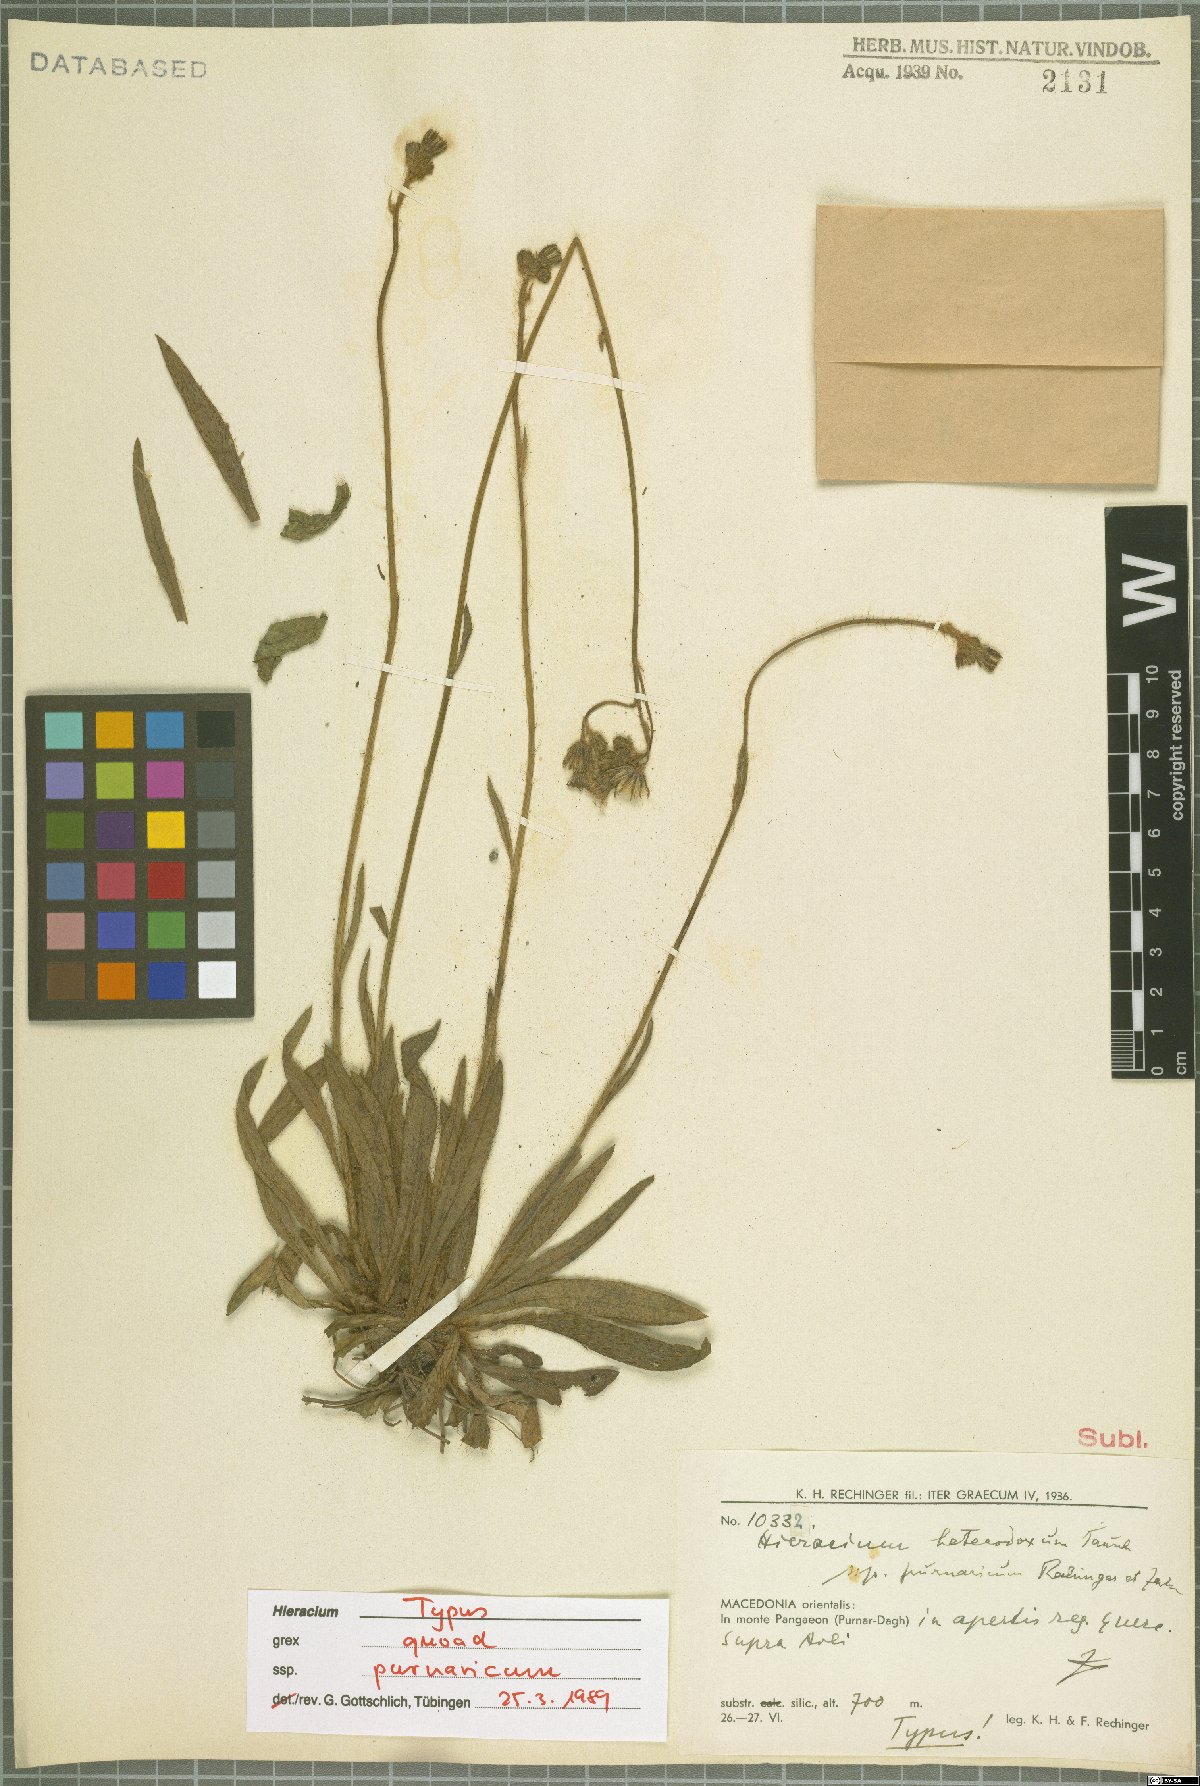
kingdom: Plantae
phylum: Tracheophyta
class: Magnoliopsida
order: Asterales
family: Asteraceae
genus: Pilosella
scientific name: Pilosella heterodoxa
